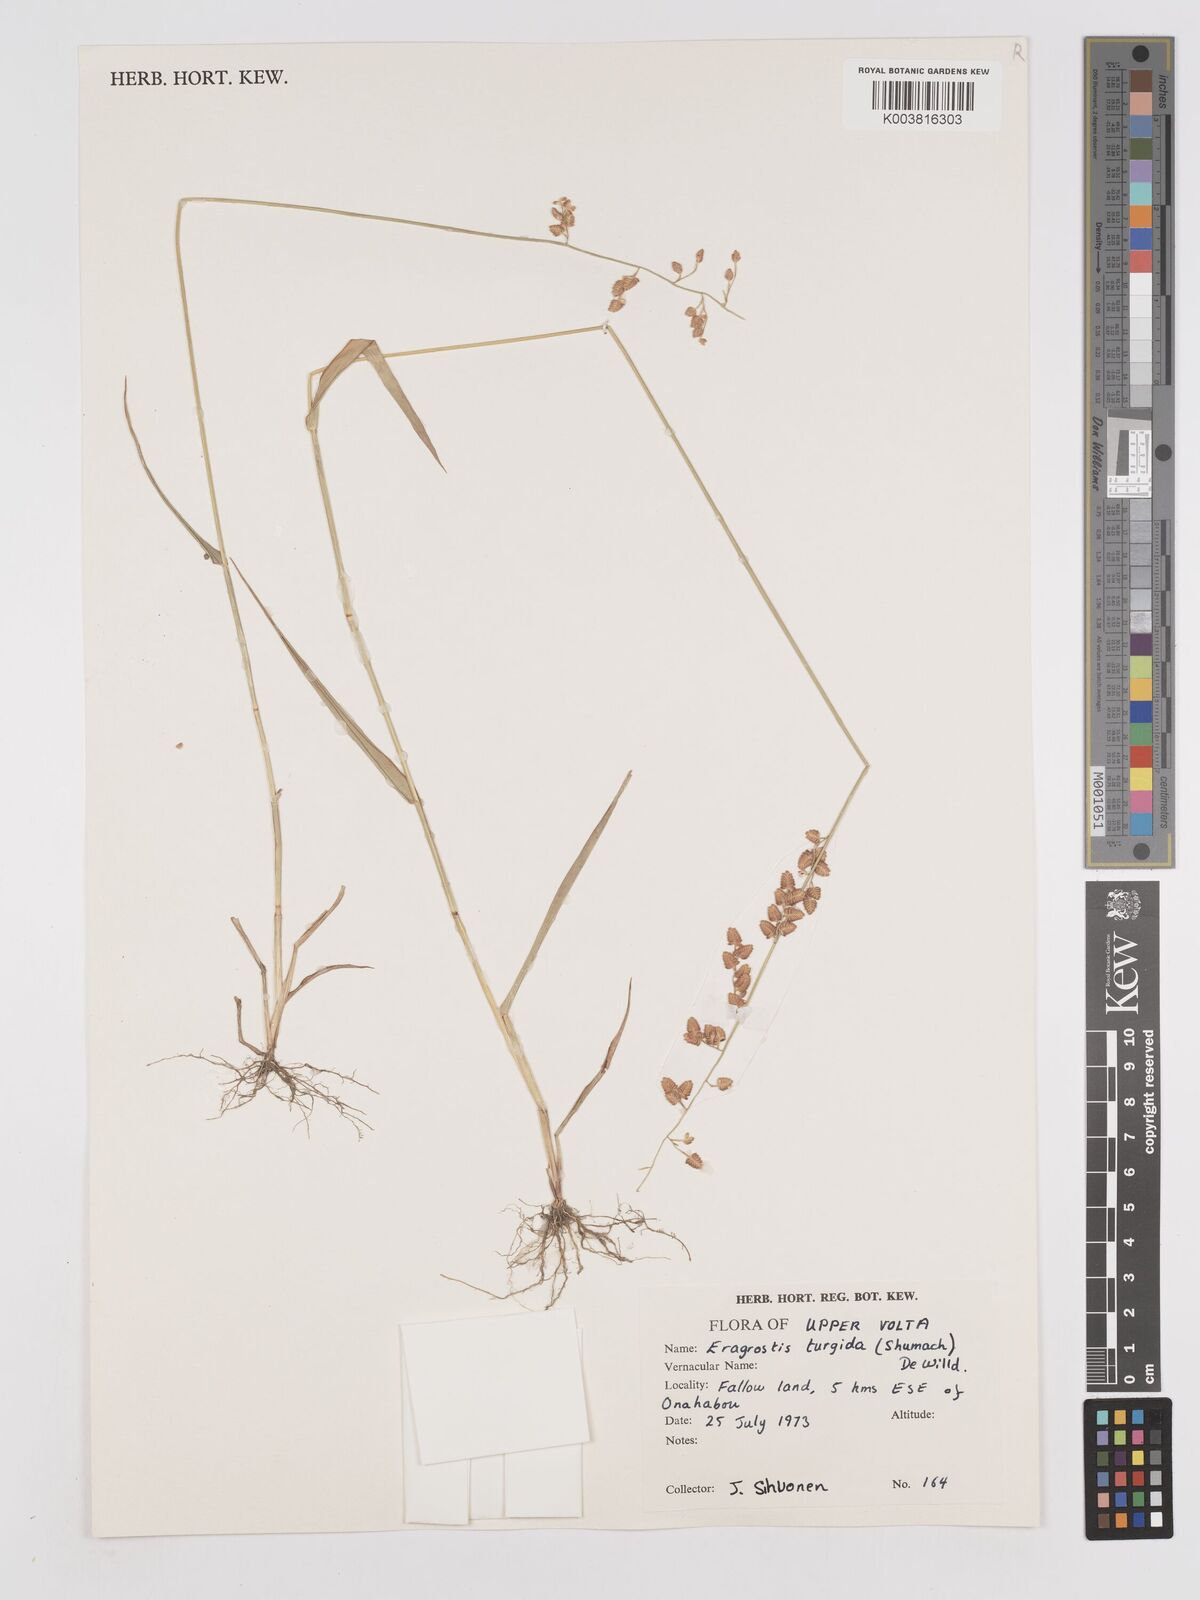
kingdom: Plantae
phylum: Tracheophyta
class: Liliopsida
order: Poales
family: Poaceae
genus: Eragrostis
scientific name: Eragrostis turgida
